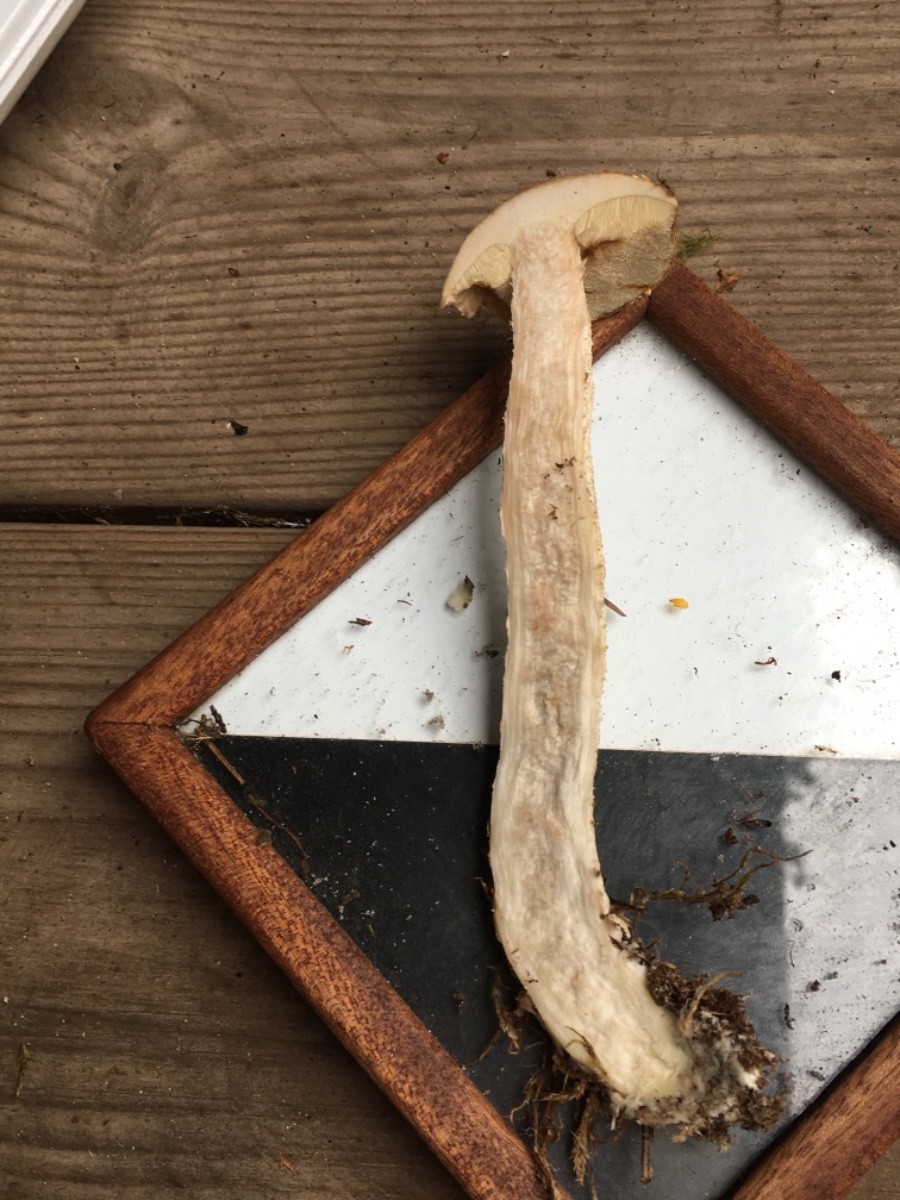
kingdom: Fungi
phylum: Basidiomycota
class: Agaricomycetes
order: Boletales
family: Boletaceae
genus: Leccinum
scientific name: Leccinum scabrum
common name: hvid skælrørhat
